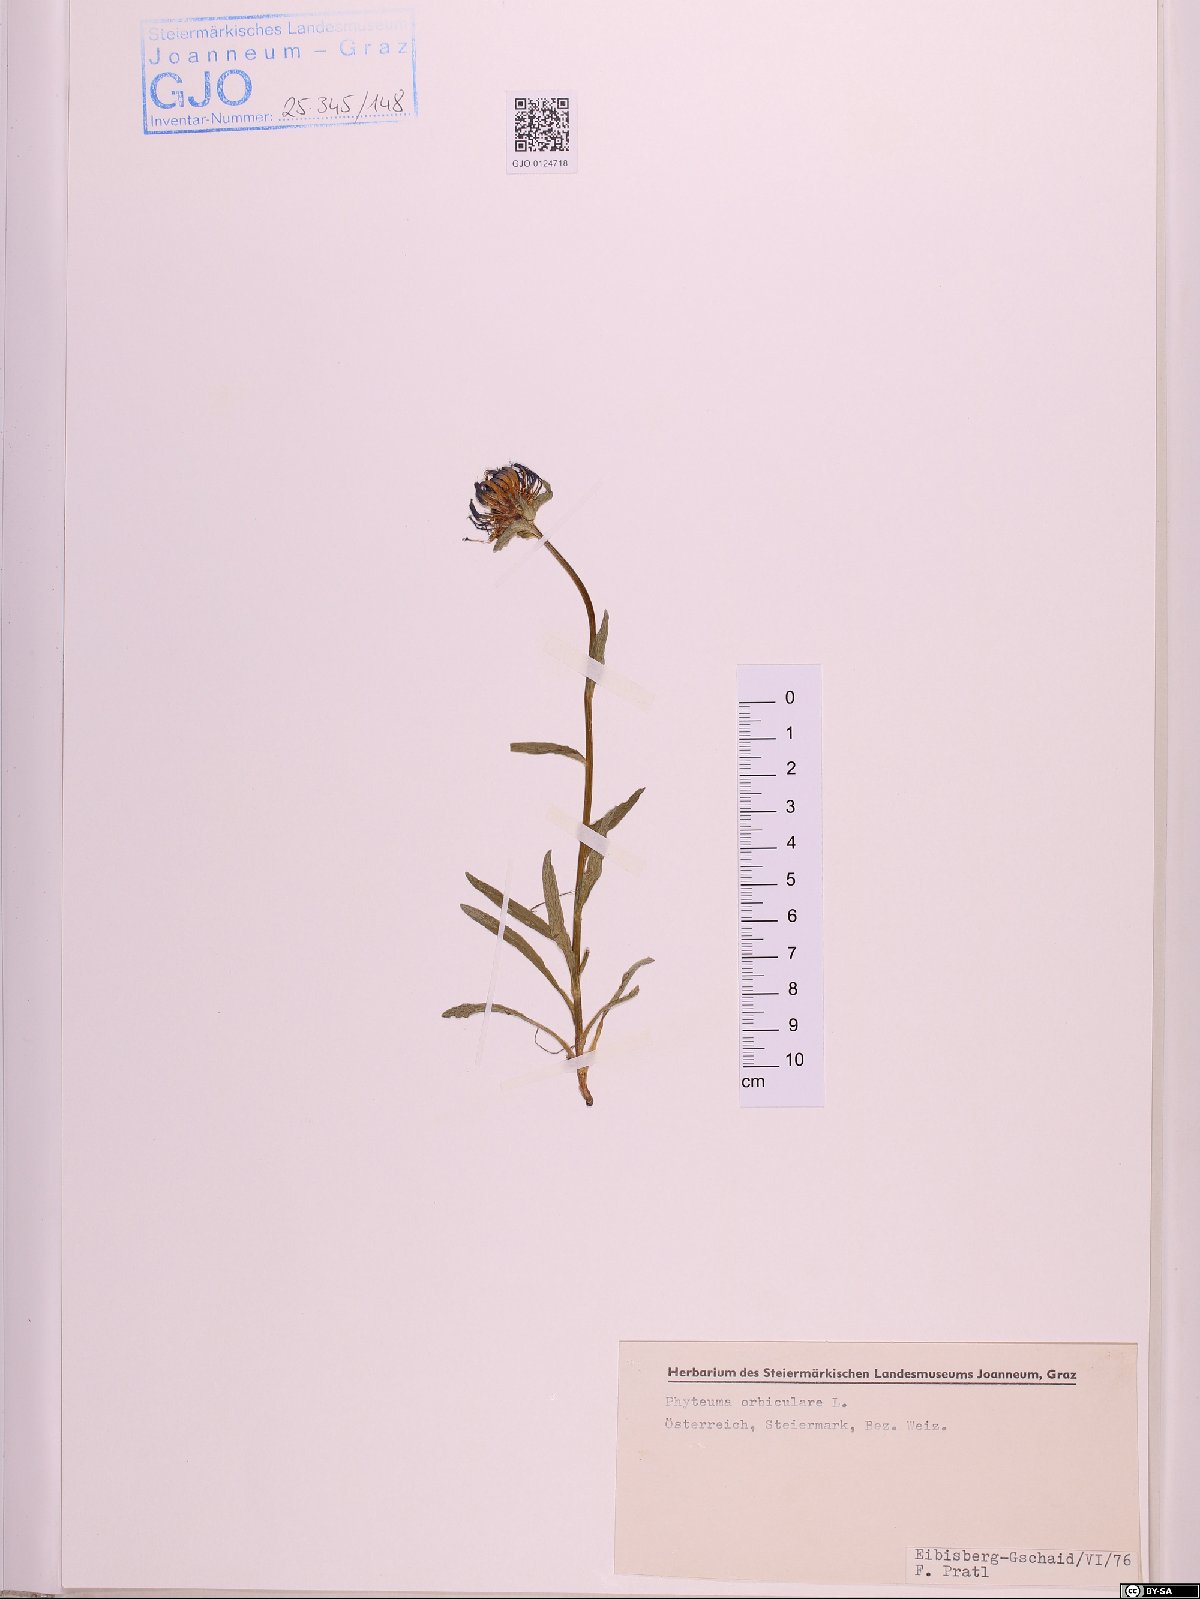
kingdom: Plantae
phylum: Tracheophyta
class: Magnoliopsida
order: Asterales
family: Campanulaceae
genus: Phyteuma
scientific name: Phyteuma orbiculare
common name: Round-headed rampion
